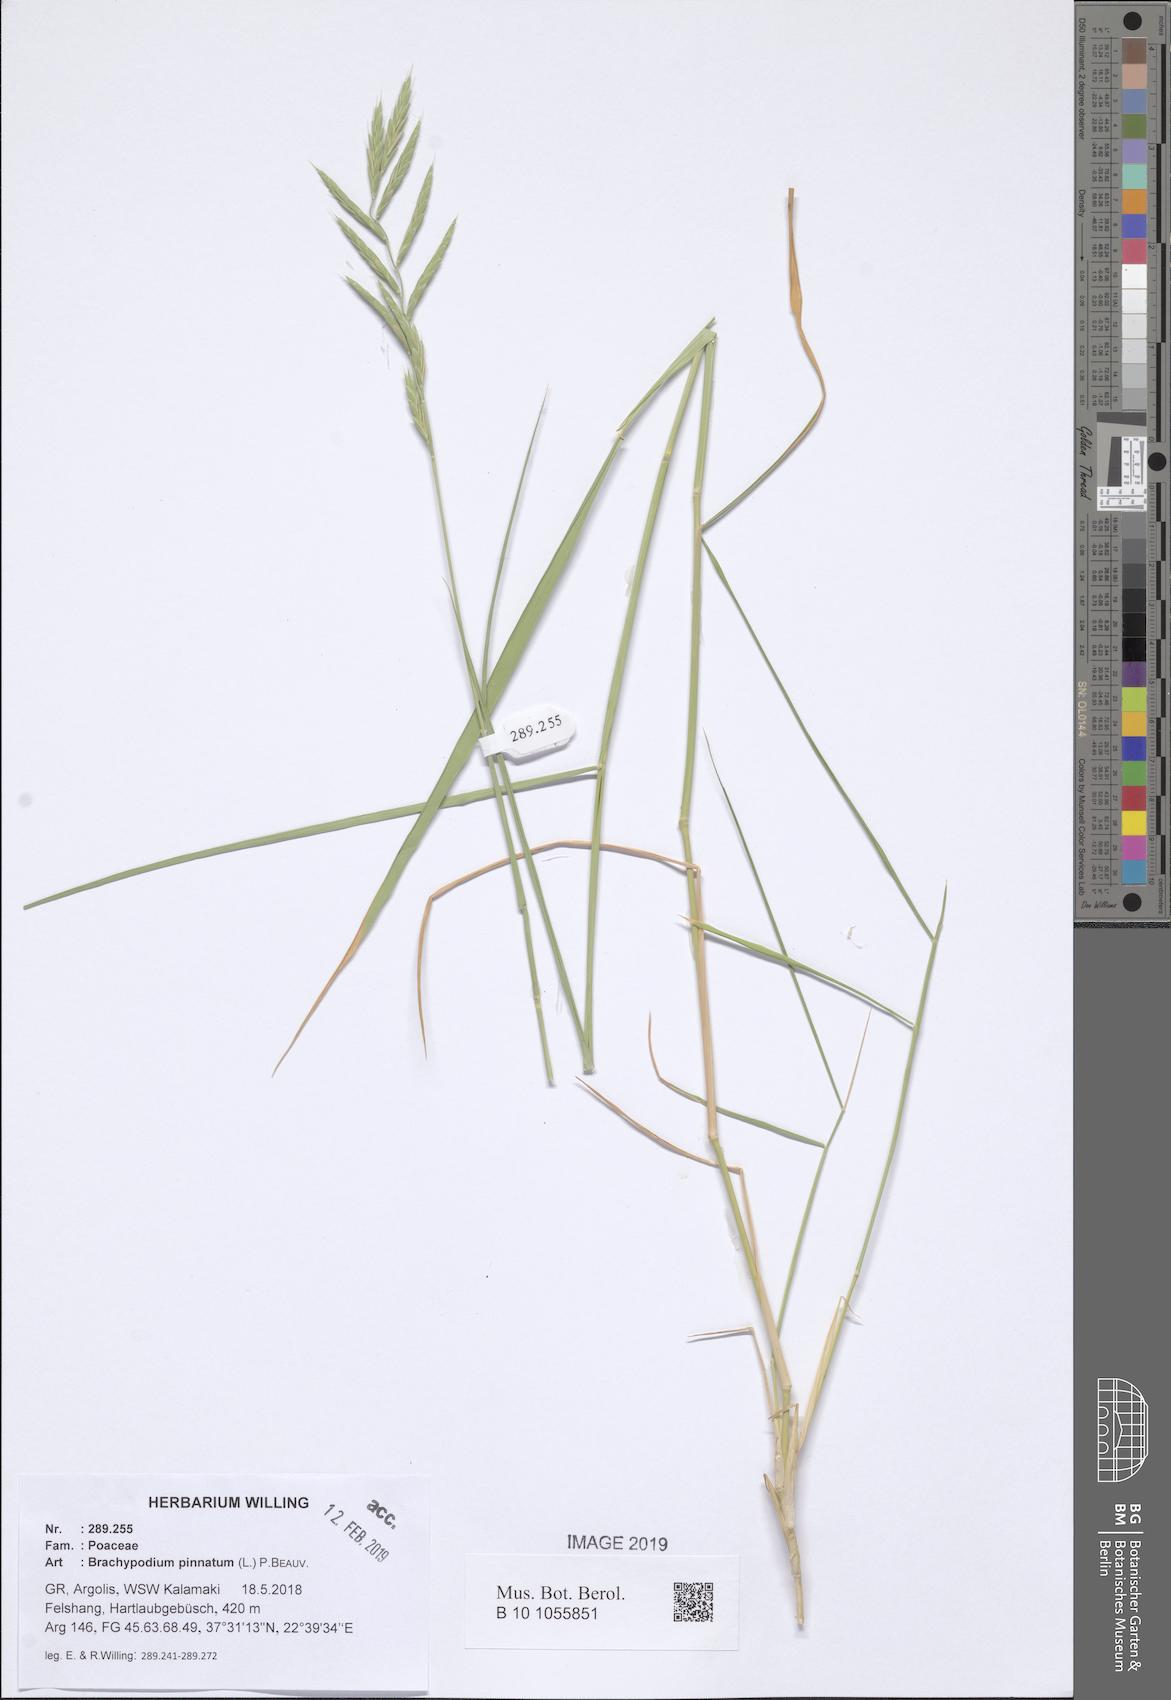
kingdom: Plantae
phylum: Tracheophyta
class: Liliopsida
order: Poales
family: Poaceae
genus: Brachypodium
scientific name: Brachypodium pinnatum
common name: Tor grass
